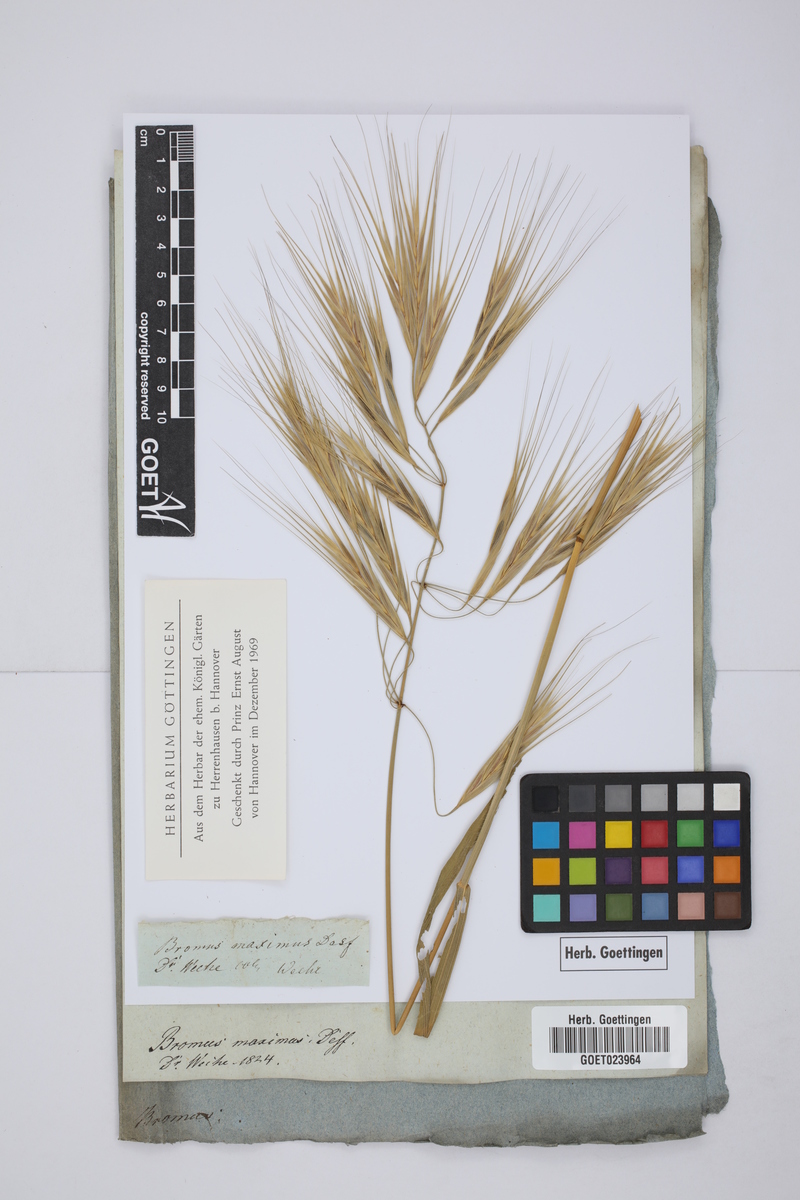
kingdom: Plantae
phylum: Tracheophyta
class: Liliopsida
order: Poales
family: Poaceae
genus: Bromus
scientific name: Bromus rigidus
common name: Ripgut brome
